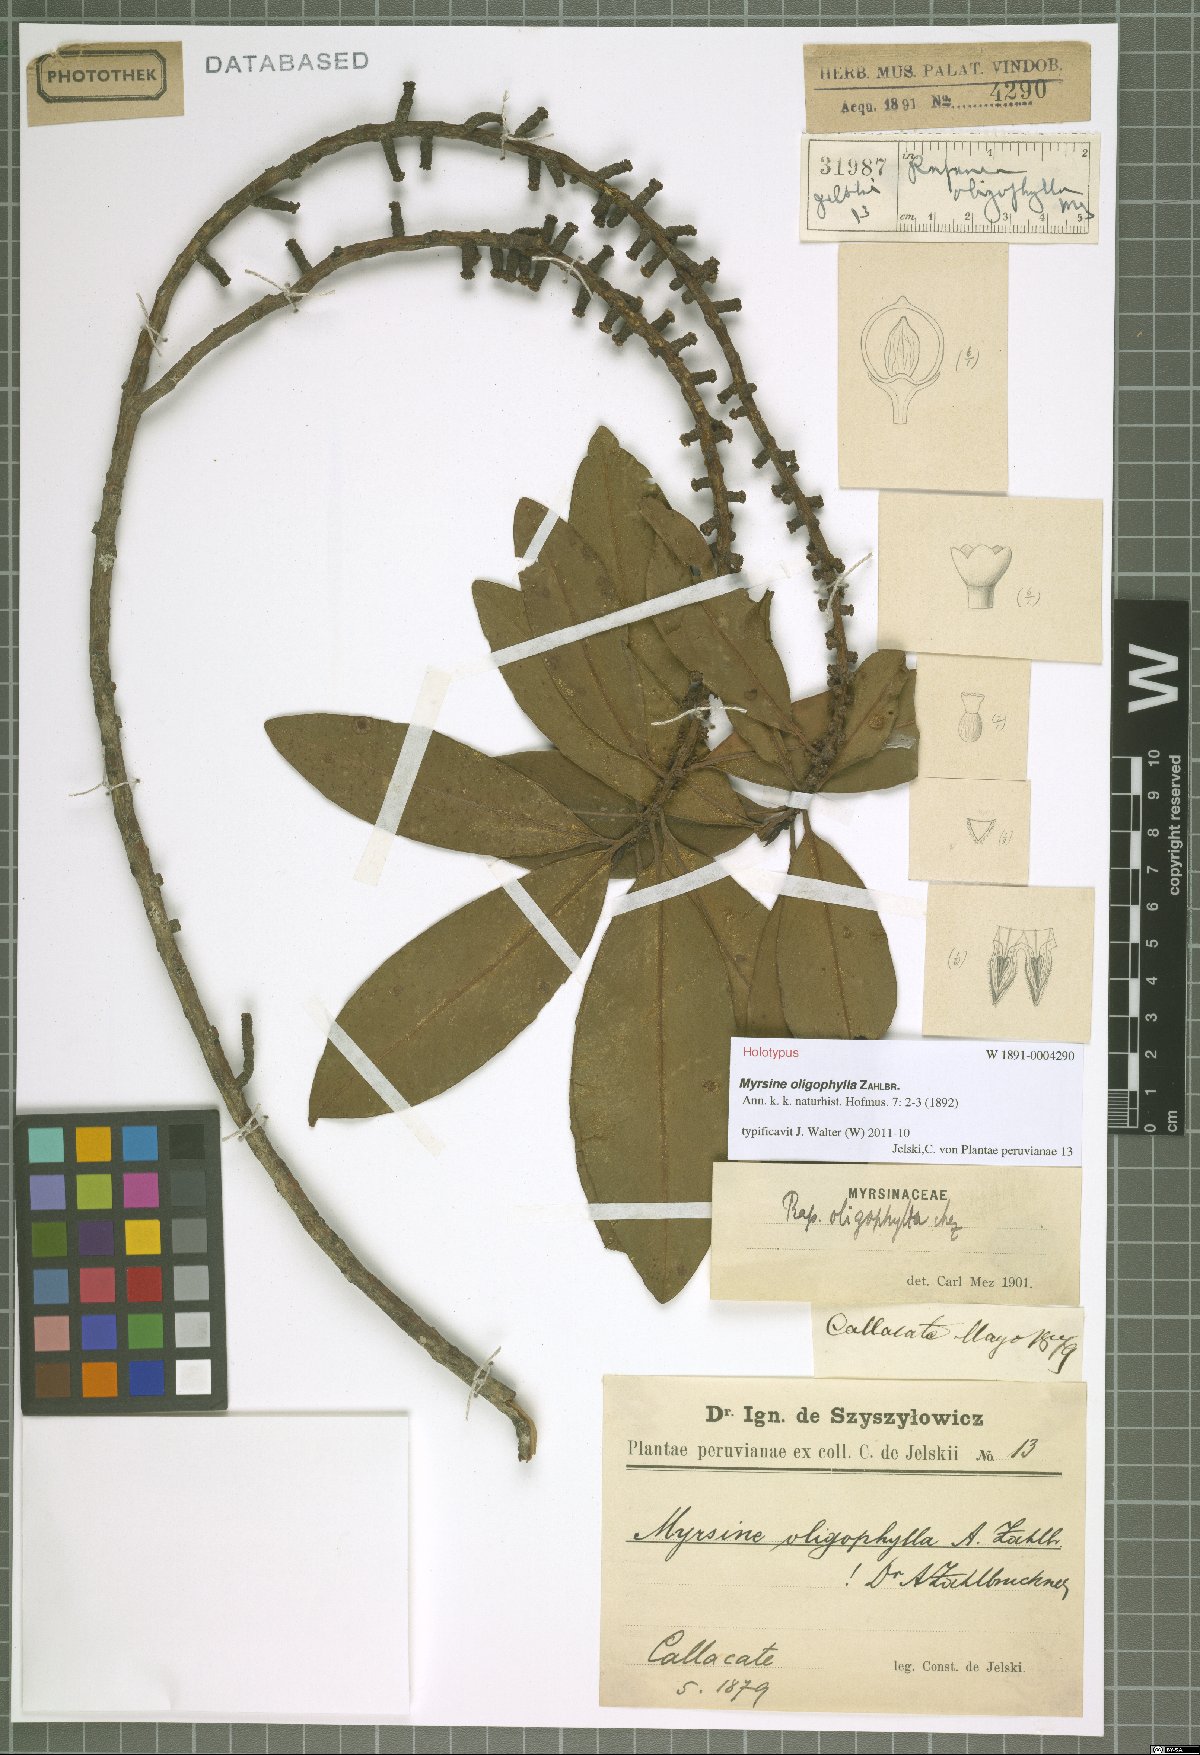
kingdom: Plantae
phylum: Tracheophyta
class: Magnoliopsida
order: Ericales
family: Primulaceae
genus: Myrsine
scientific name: Myrsine oligophylla
